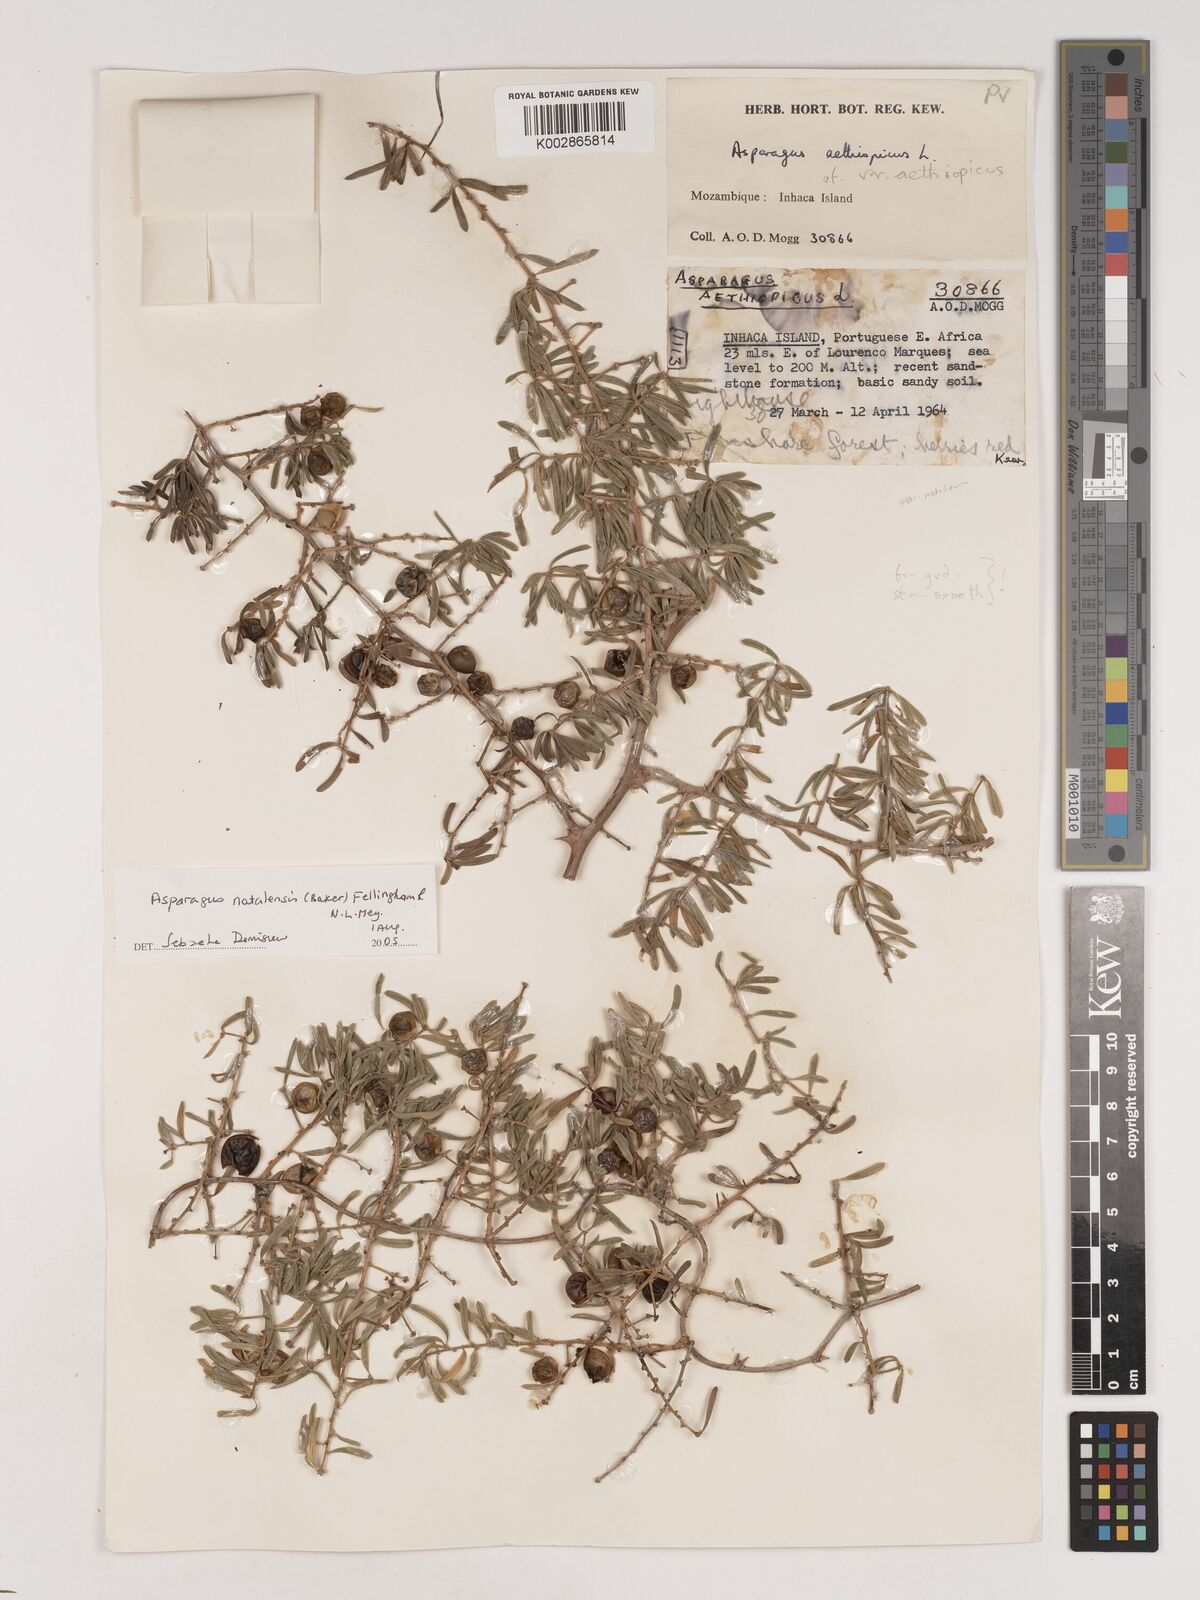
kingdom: Plantae
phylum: Tracheophyta
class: Liliopsida
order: Asparagales
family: Asparagaceae
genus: Asparagus
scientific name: Asparagus aethiopicus
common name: Sprenger's asparagus fern
